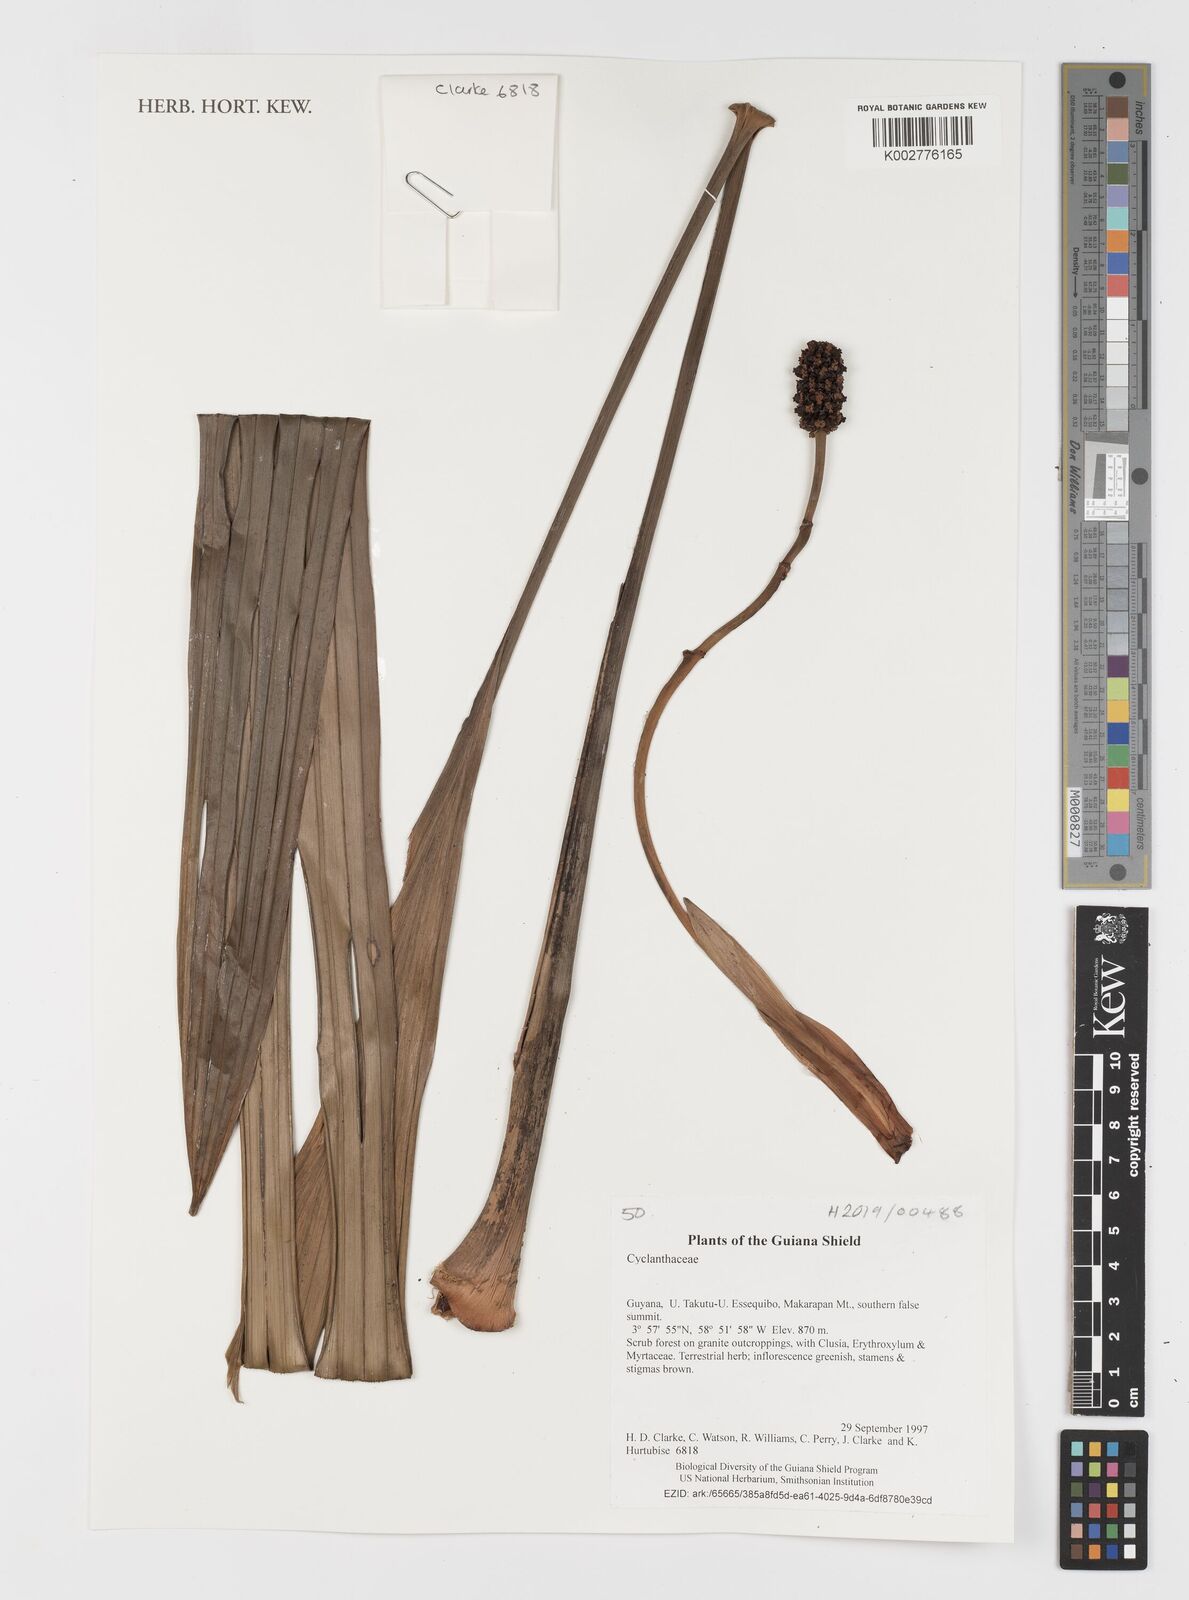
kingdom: Plantae
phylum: Tracheophyta
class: Liliopsida
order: Pandanales
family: Cyclanthaceae
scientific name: Cyclanthaceae
